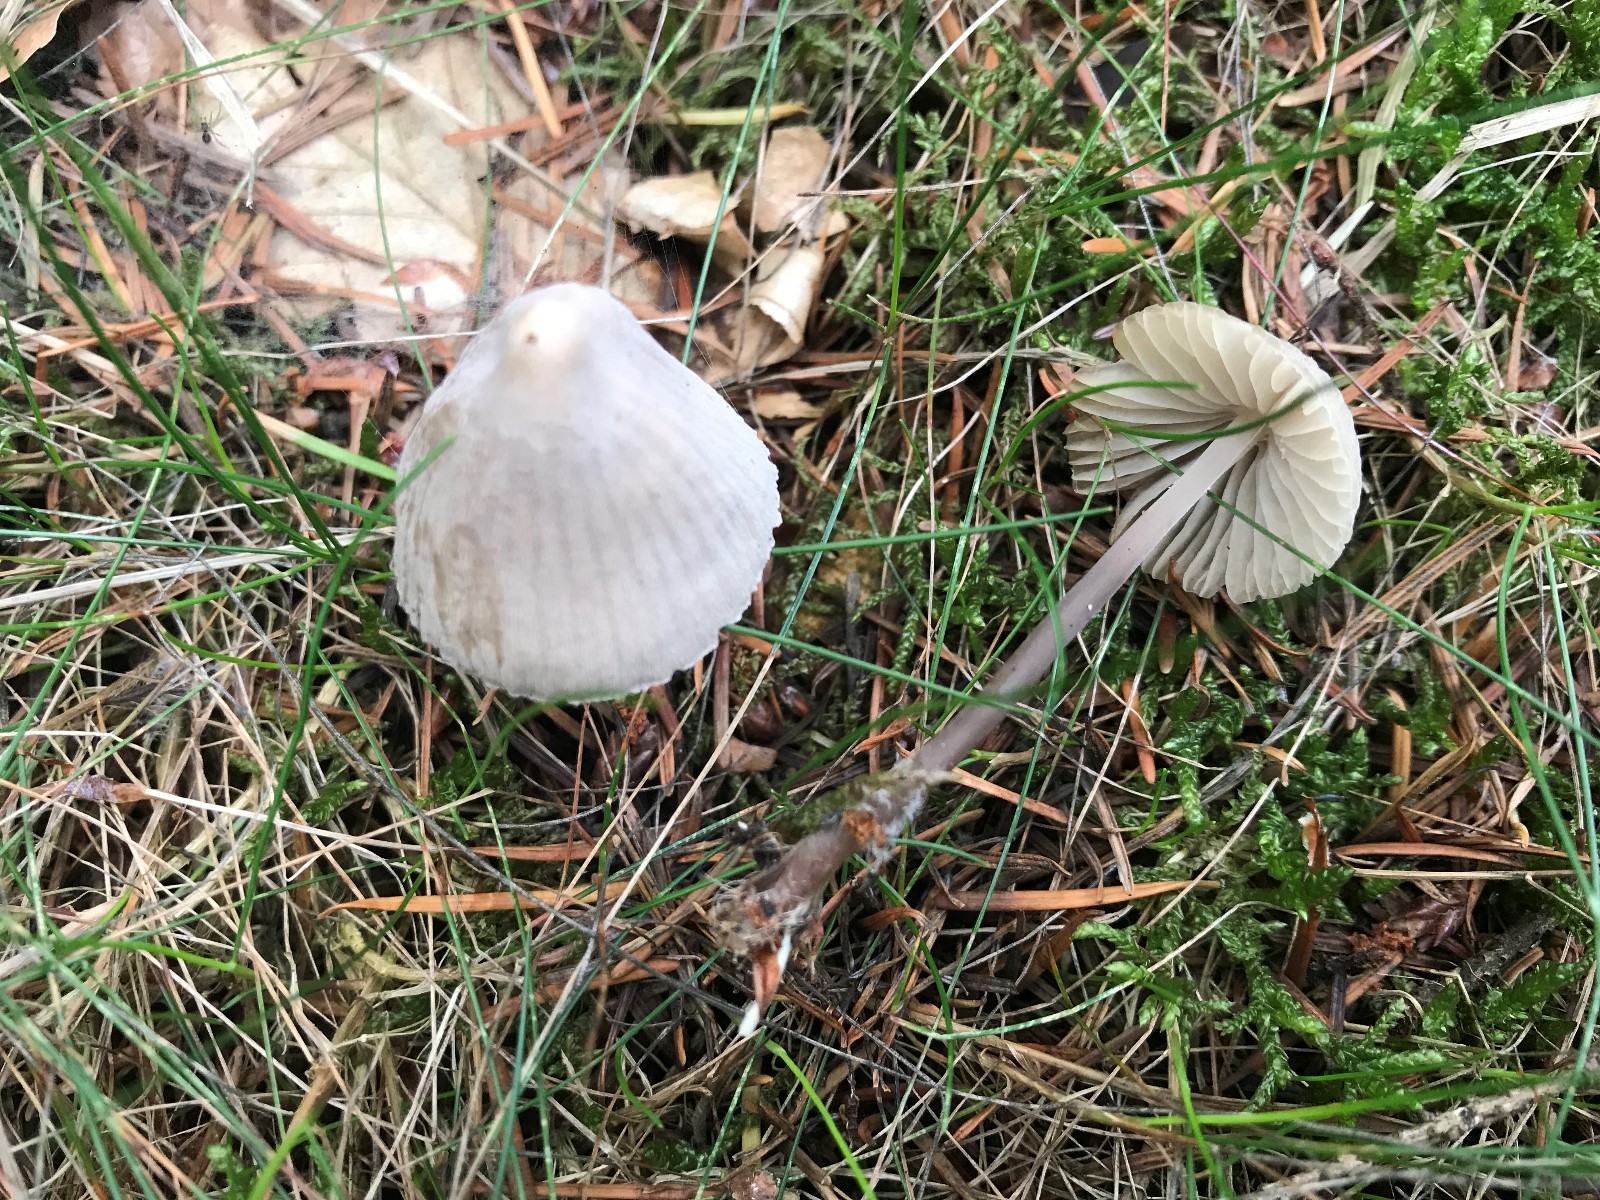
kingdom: Fungi
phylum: Basidiomycota
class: Agaricomycetes
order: Agaricales
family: Mycenaceae
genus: Mycena
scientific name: Mycena
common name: huesvamp
